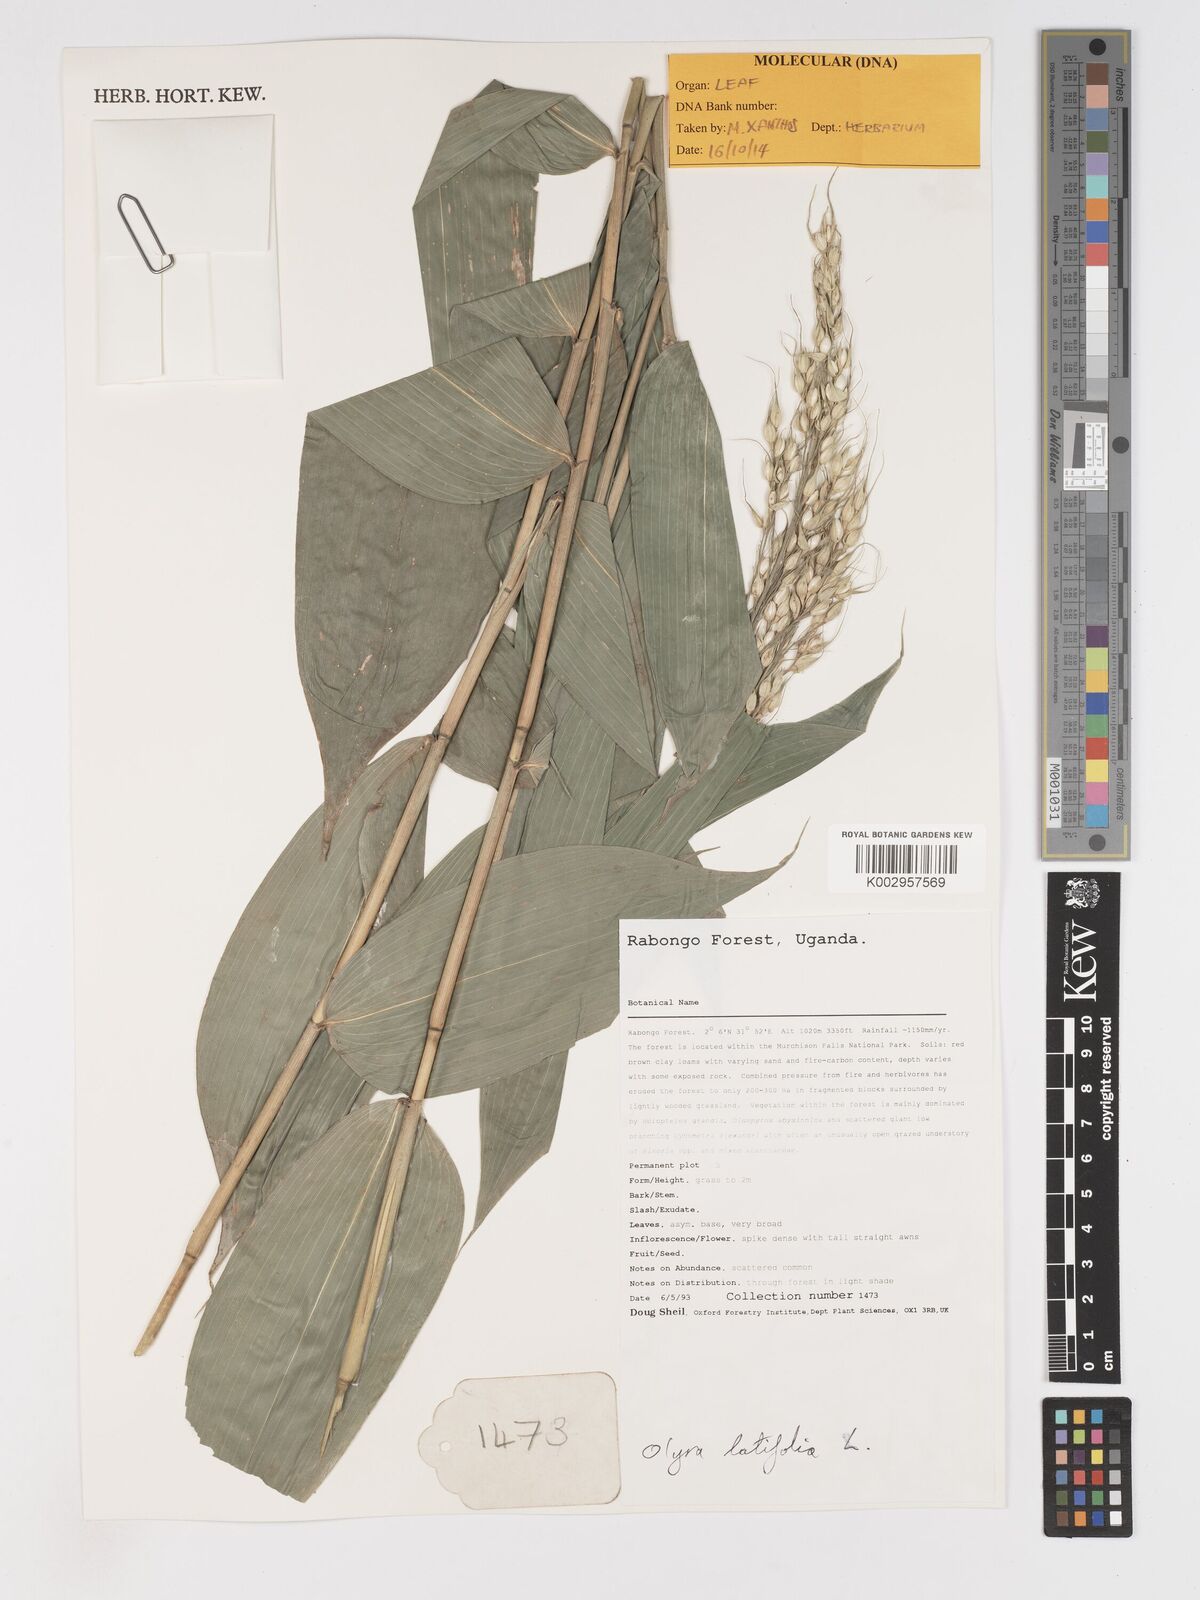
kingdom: Plantae
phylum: Tracheophyta
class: Liliopsida
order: Poales
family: Poaceae
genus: Olyra
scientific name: Olyra latifolia
